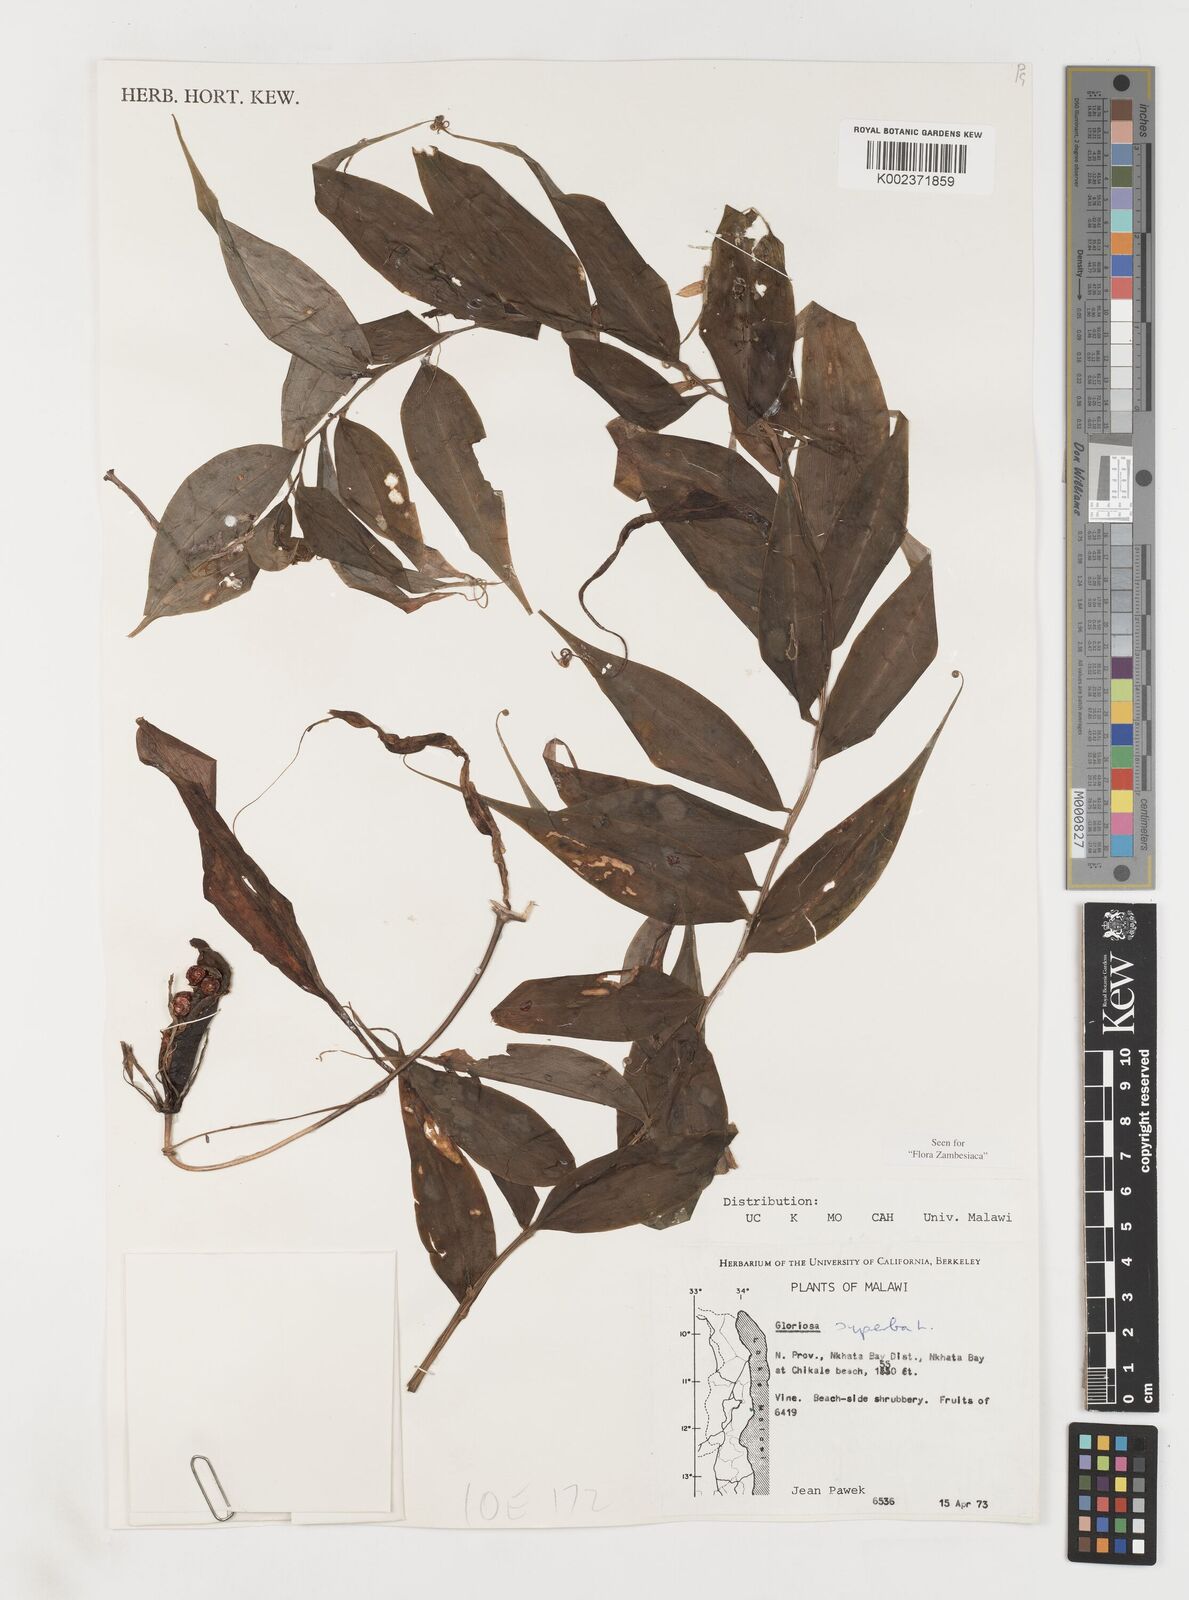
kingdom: Plantae
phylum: Tracheophyta
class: Liliopsida
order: Liliales
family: Colchicaceae
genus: Gloriosa
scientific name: Gloriosa simplex
